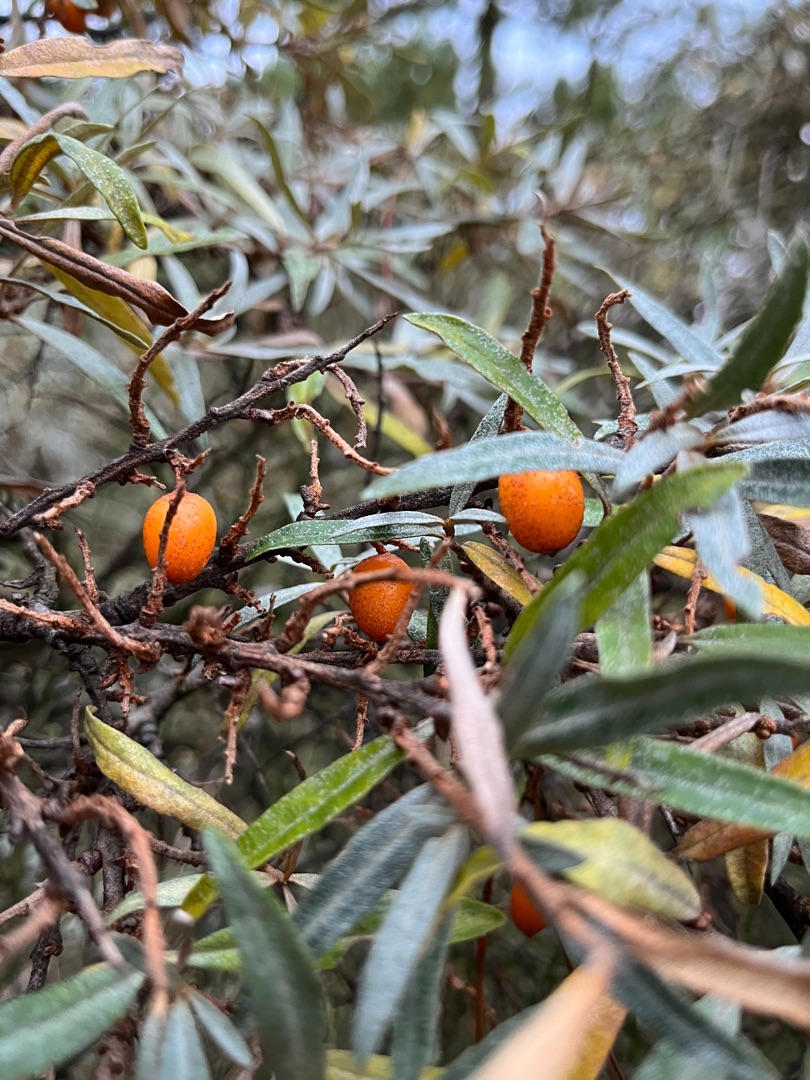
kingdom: Plantae
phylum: Tracheophyta
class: Magnoliopsida
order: Rosales
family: Elaeagnaceae
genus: Hippophae
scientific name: Hippophae rhamnoides
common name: Havtorn
